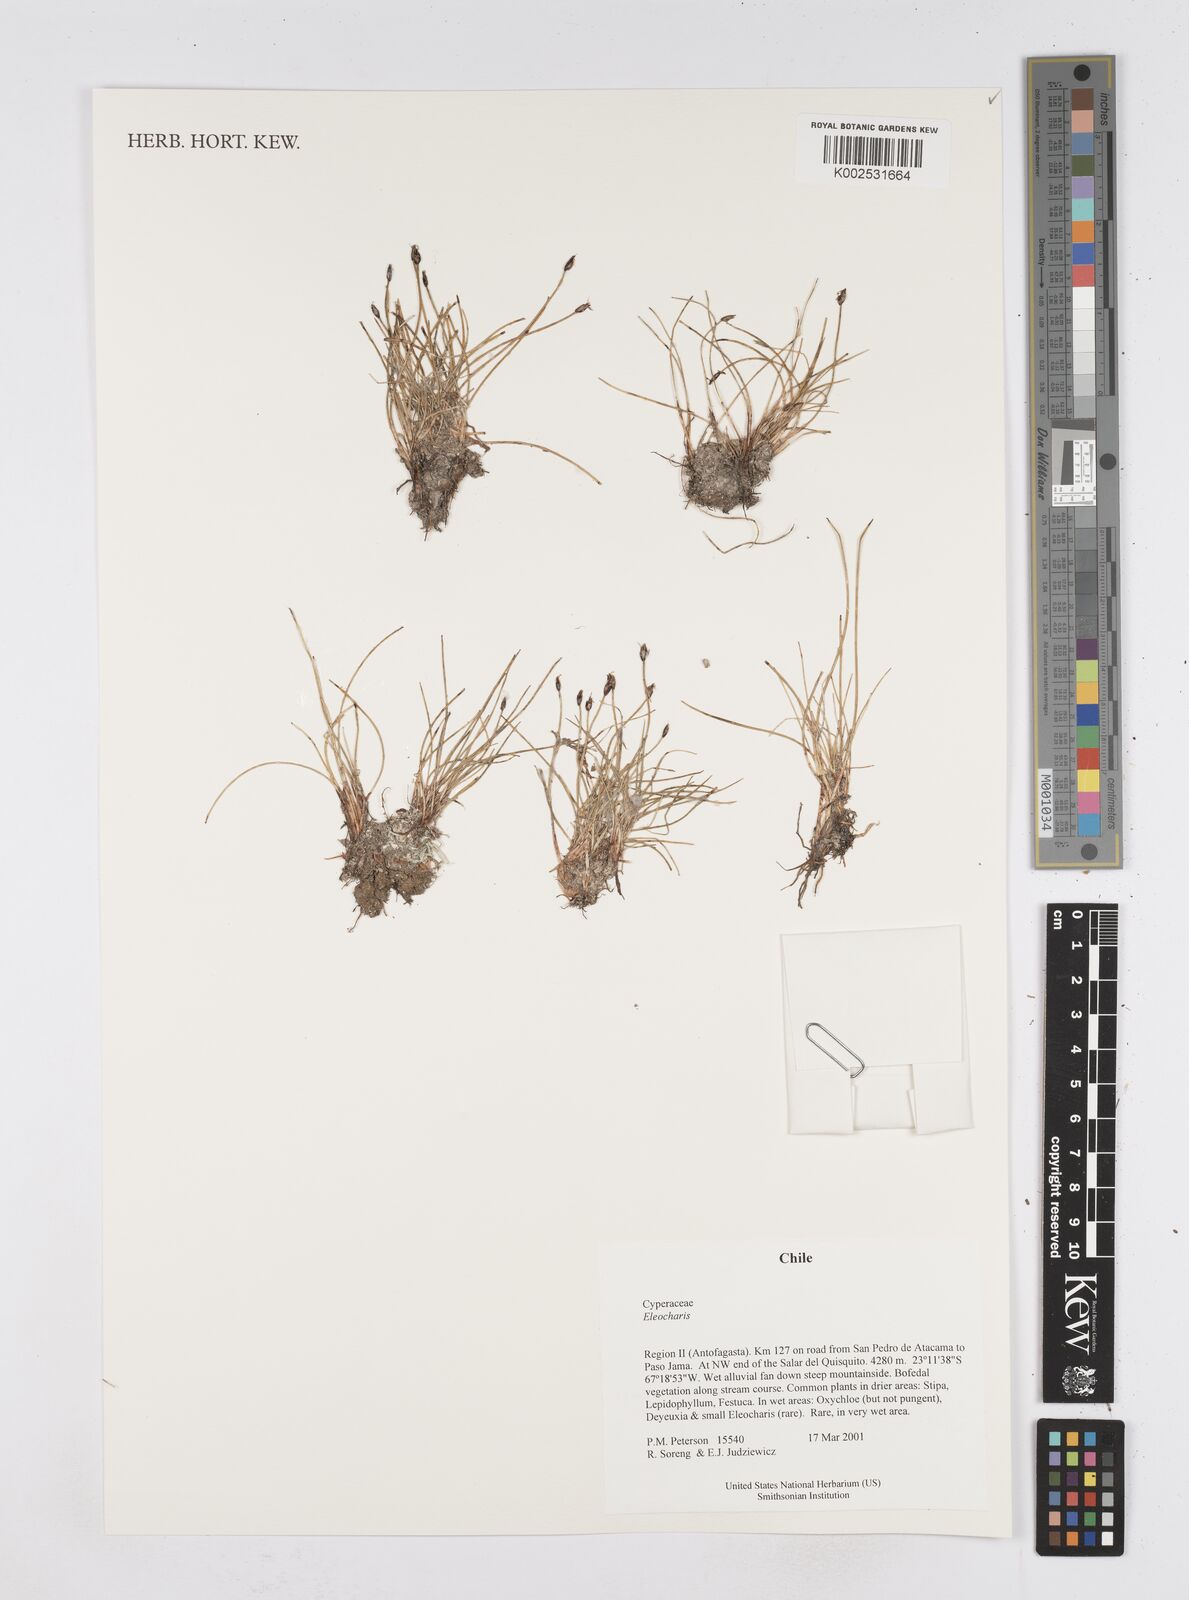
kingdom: Plantae
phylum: Tracheophyta
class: Liliopsida
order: Poales
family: Cyperaceae
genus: Eleocharis
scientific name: Eleocharis
